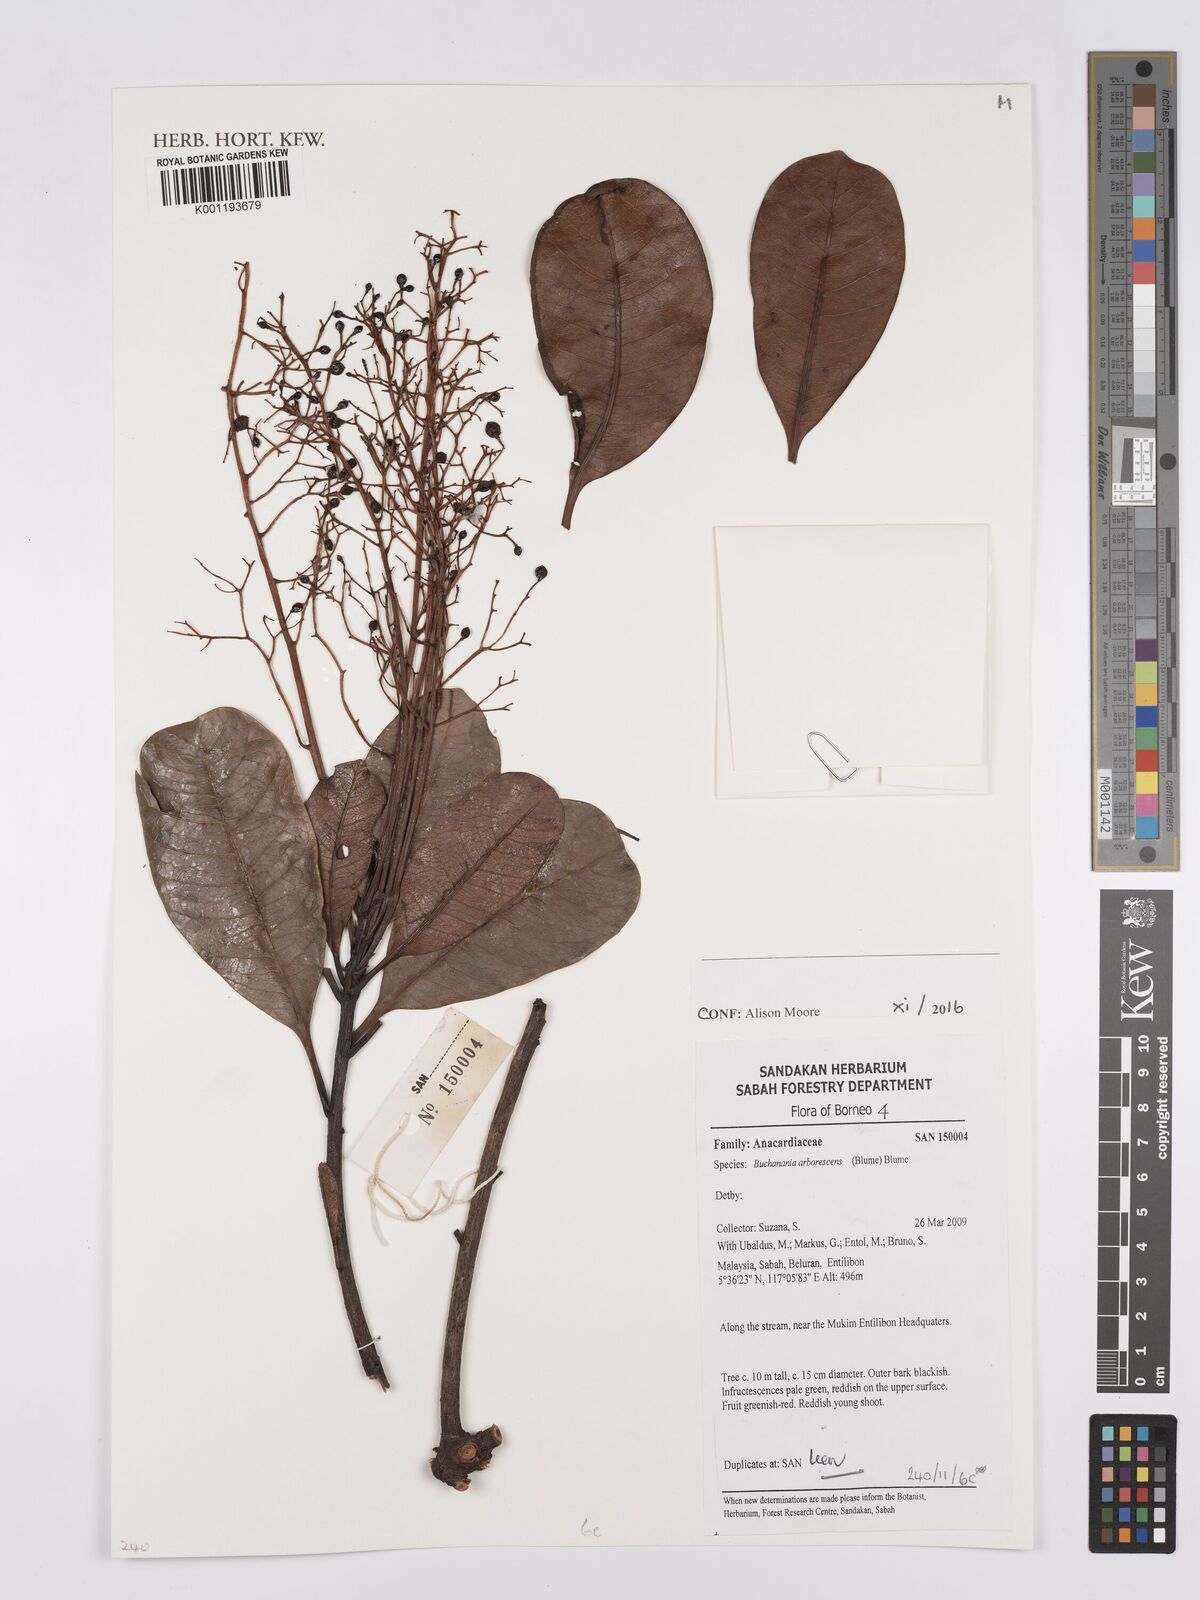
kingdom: Plantae
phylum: Tracheophyta
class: Magnoliopsida
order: Sapindales
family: Anacardiaceae
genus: Buchanania
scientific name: Buchanania arborescens
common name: Sparrow’s mango
